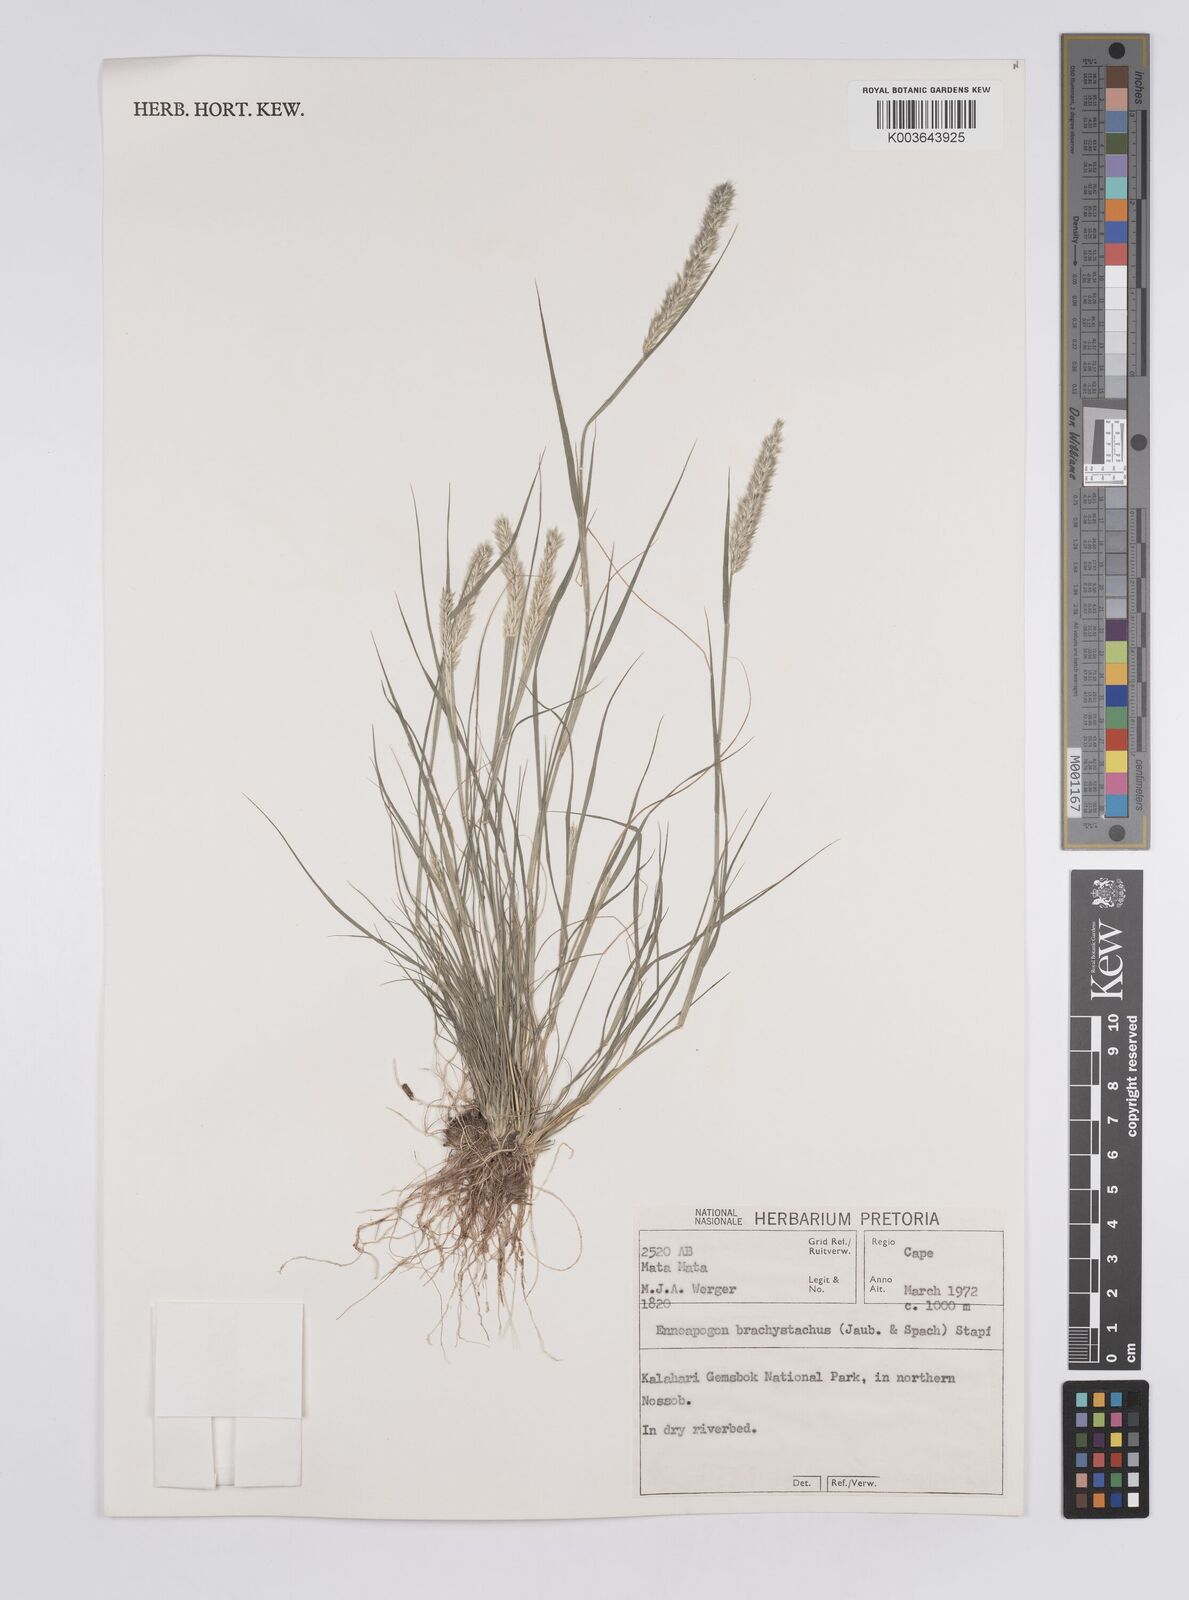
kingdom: Plantae
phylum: Tracheophyta
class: Liliopsida
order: Poales
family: Poaceae
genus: Enneapogon
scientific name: Enneapogon desvauxii
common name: Feather pappus grass
